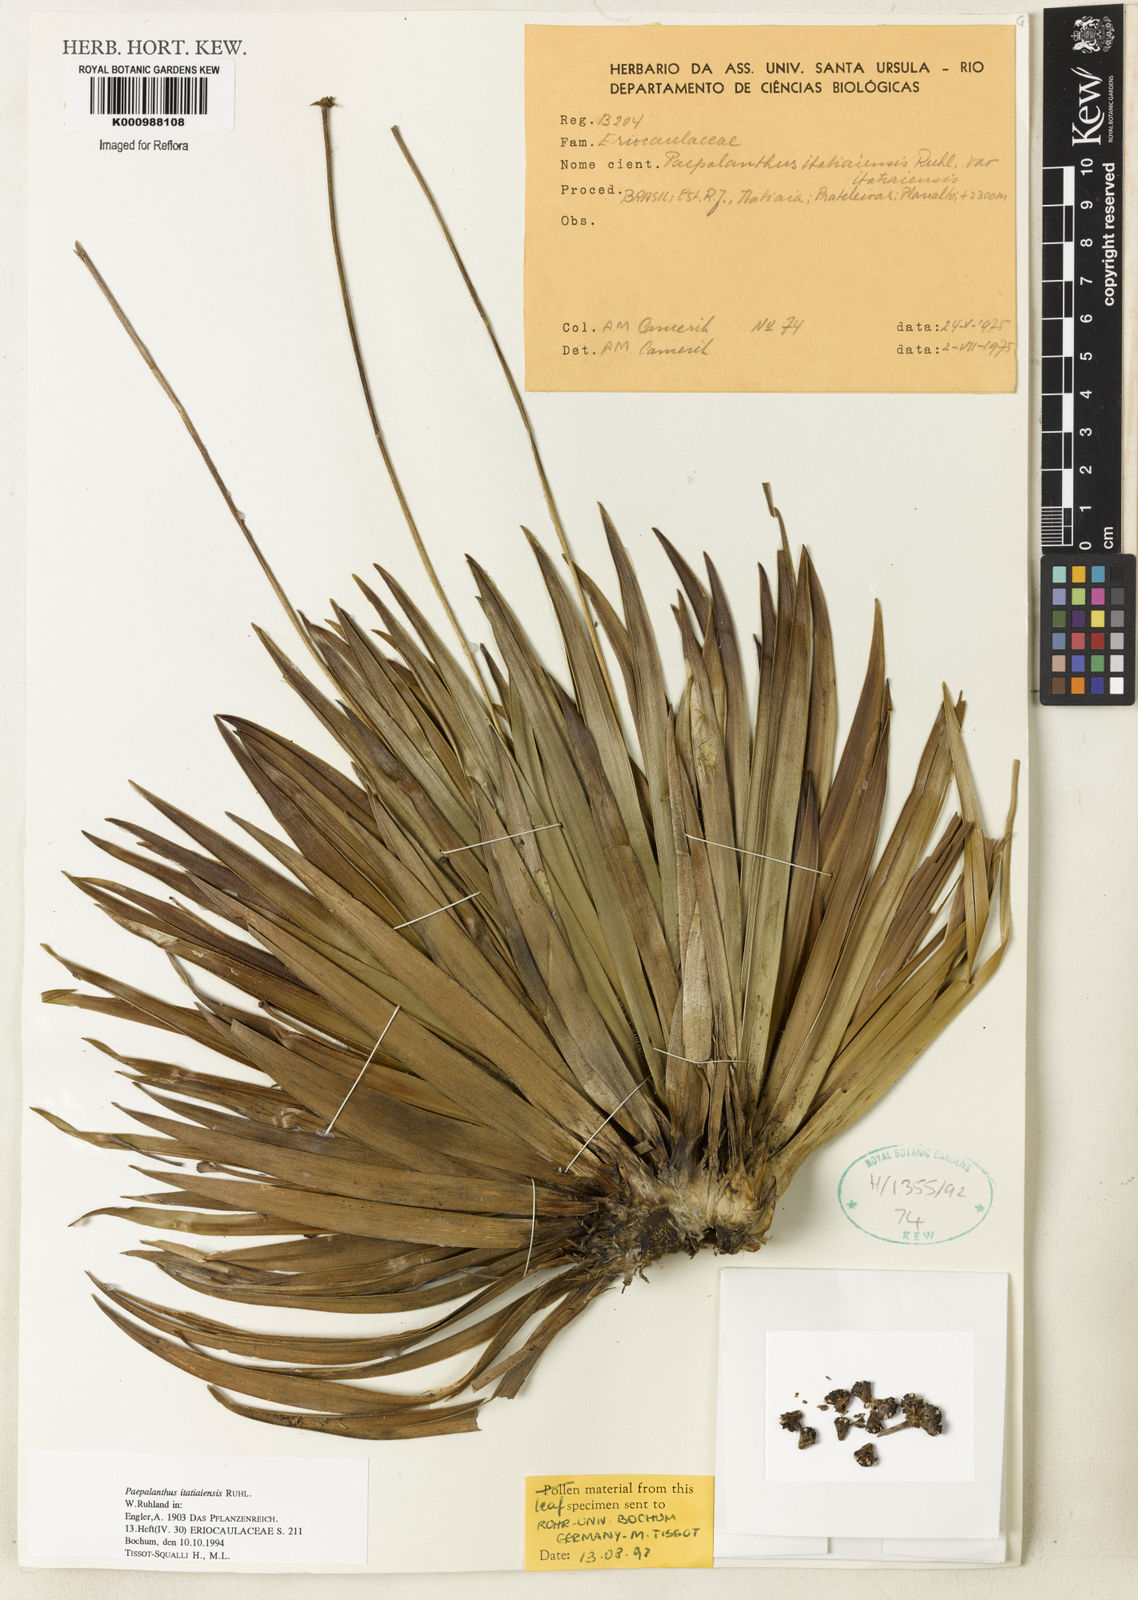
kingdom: Plantae
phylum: Tracheophyta
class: Liliopsida
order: Poales
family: Eriocaulaceae
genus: Paepalanthus
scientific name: Paepalanthus itatiaiensis
